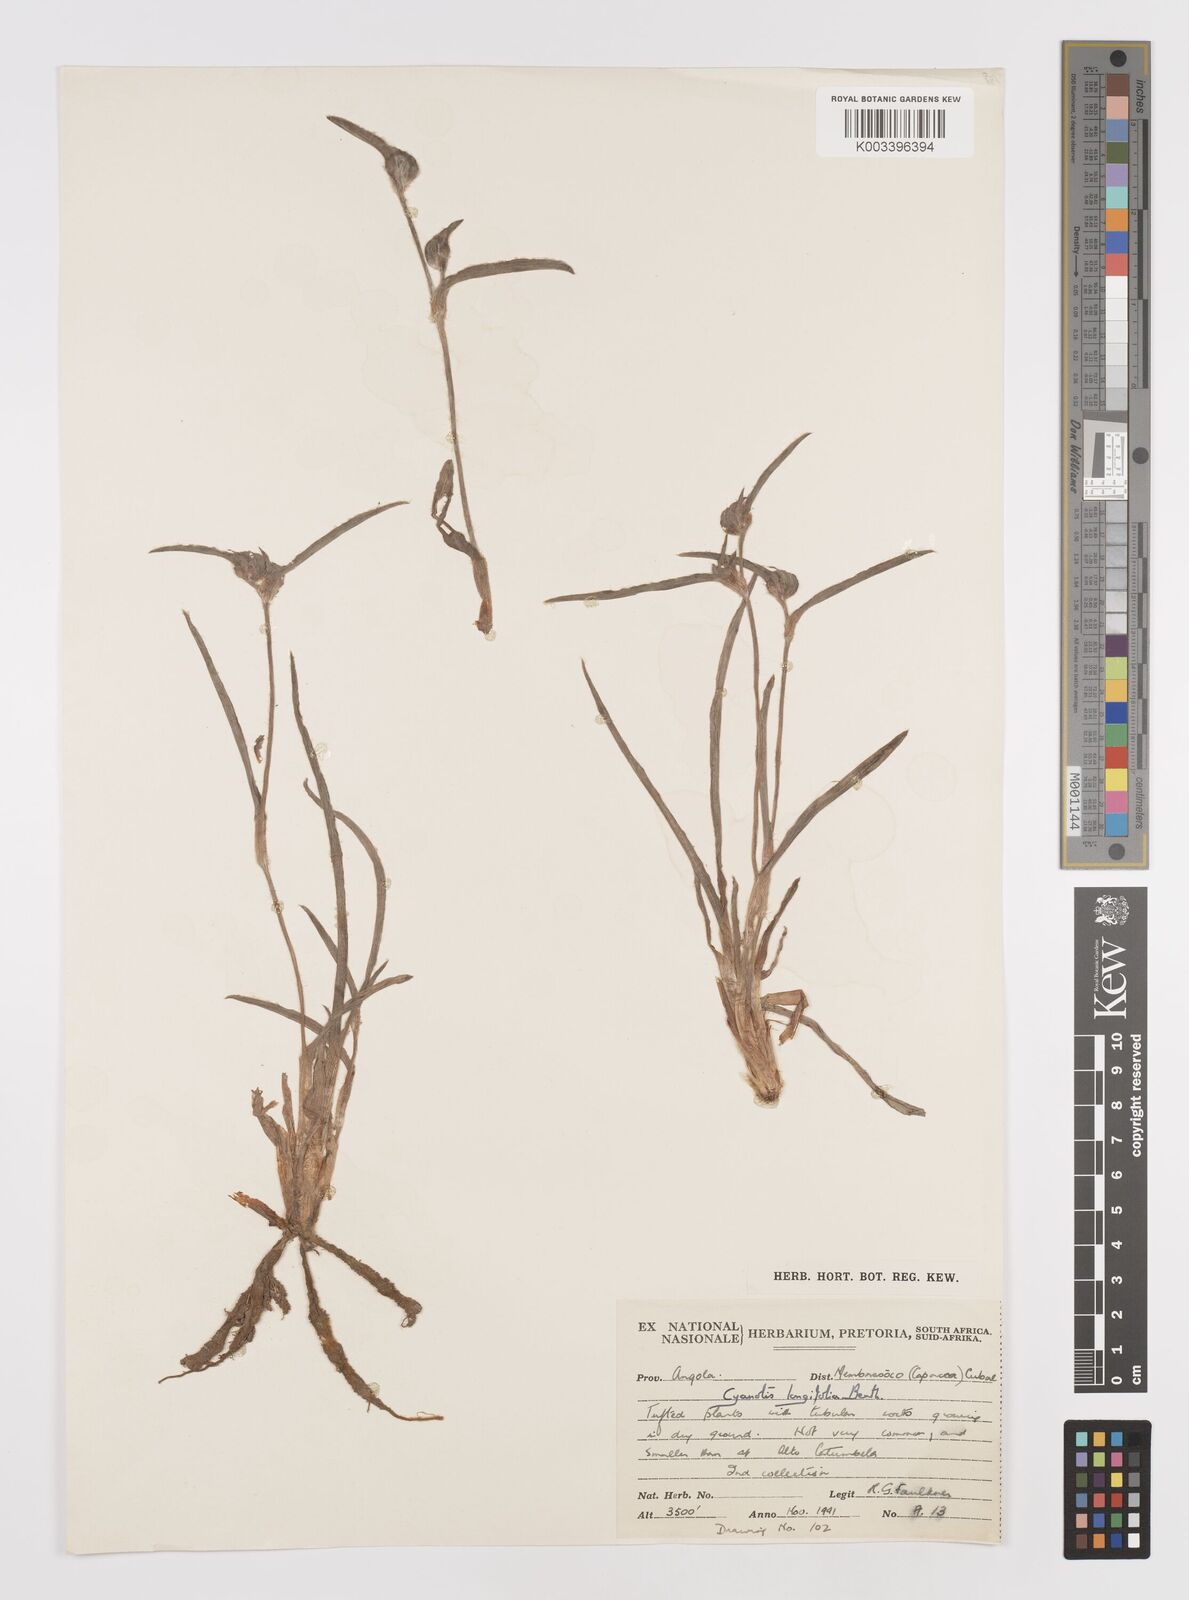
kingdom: Plantae
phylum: Tracheophyta
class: Liliopsida
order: Commelinales
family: Commelinaceae
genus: Cyanotis
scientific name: Cyanotis longifolia
